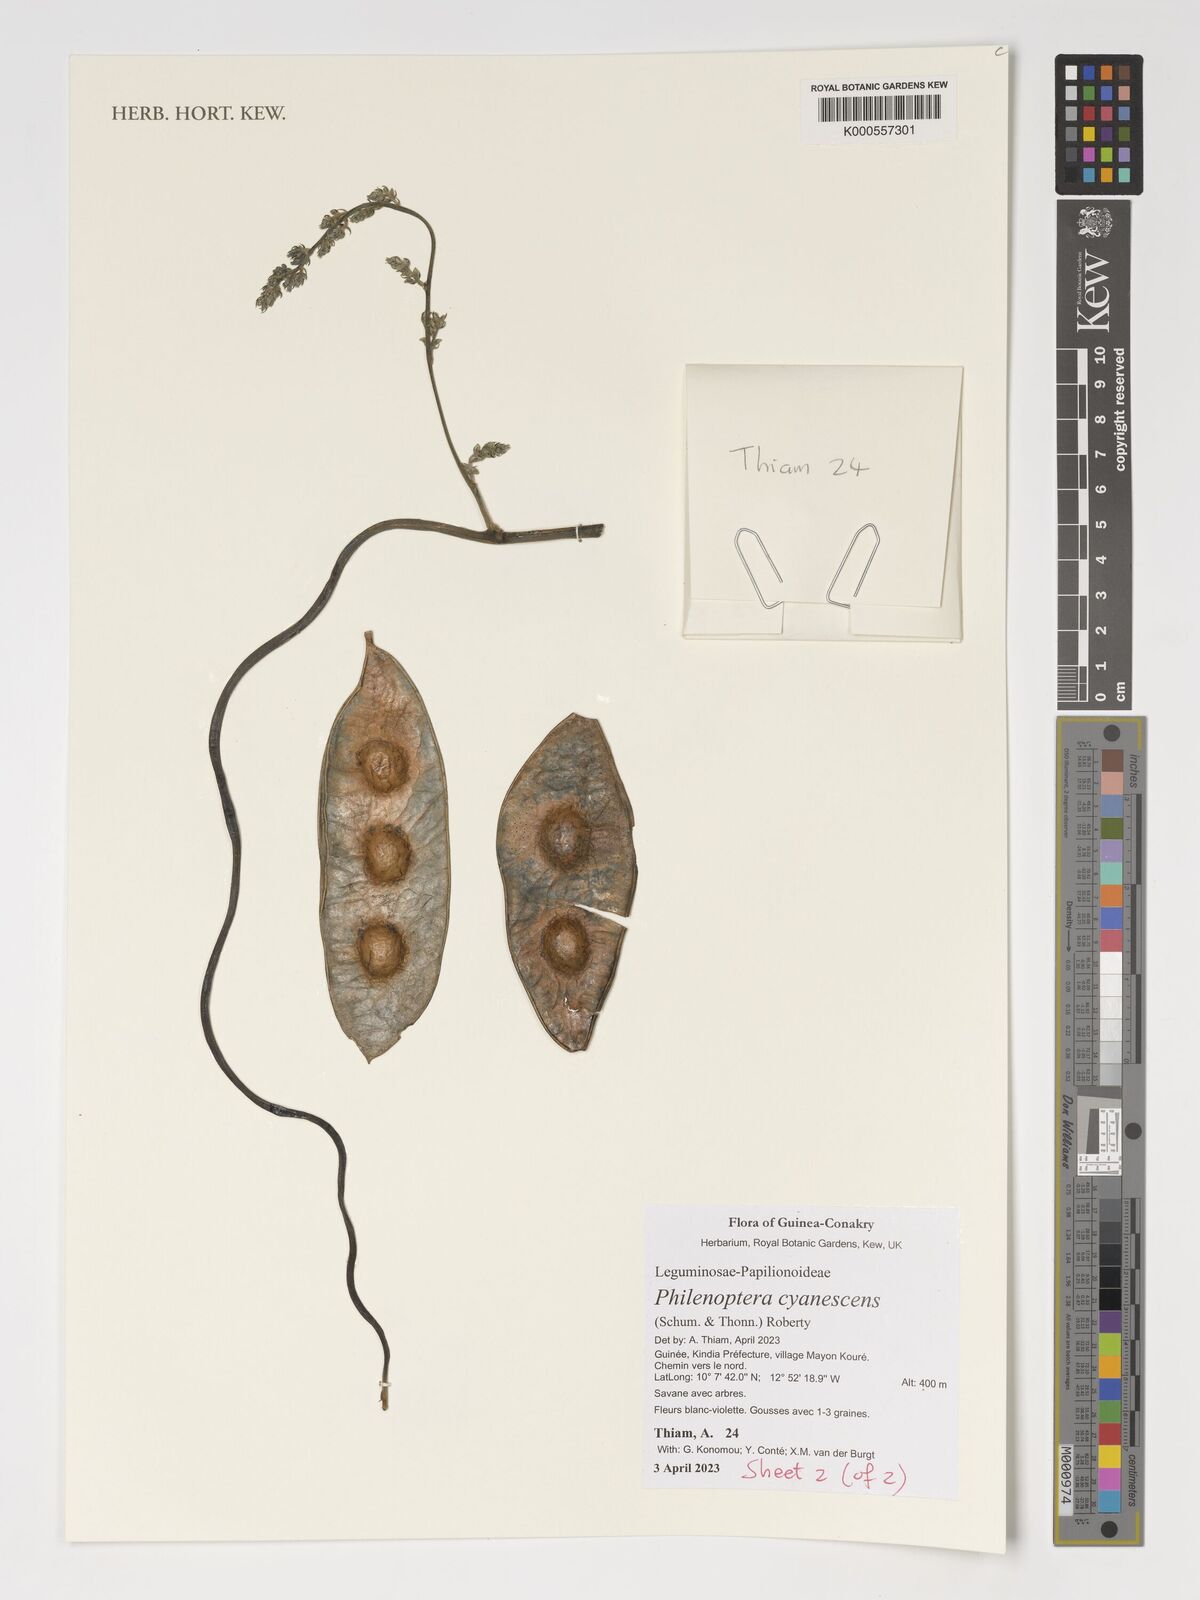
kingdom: Plantae
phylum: Tracheophyta
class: Magnoliopsida
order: Fabales
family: Fabaceae
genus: Philenoptera
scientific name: Philenoptera cyanescens
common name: West african-indigo
